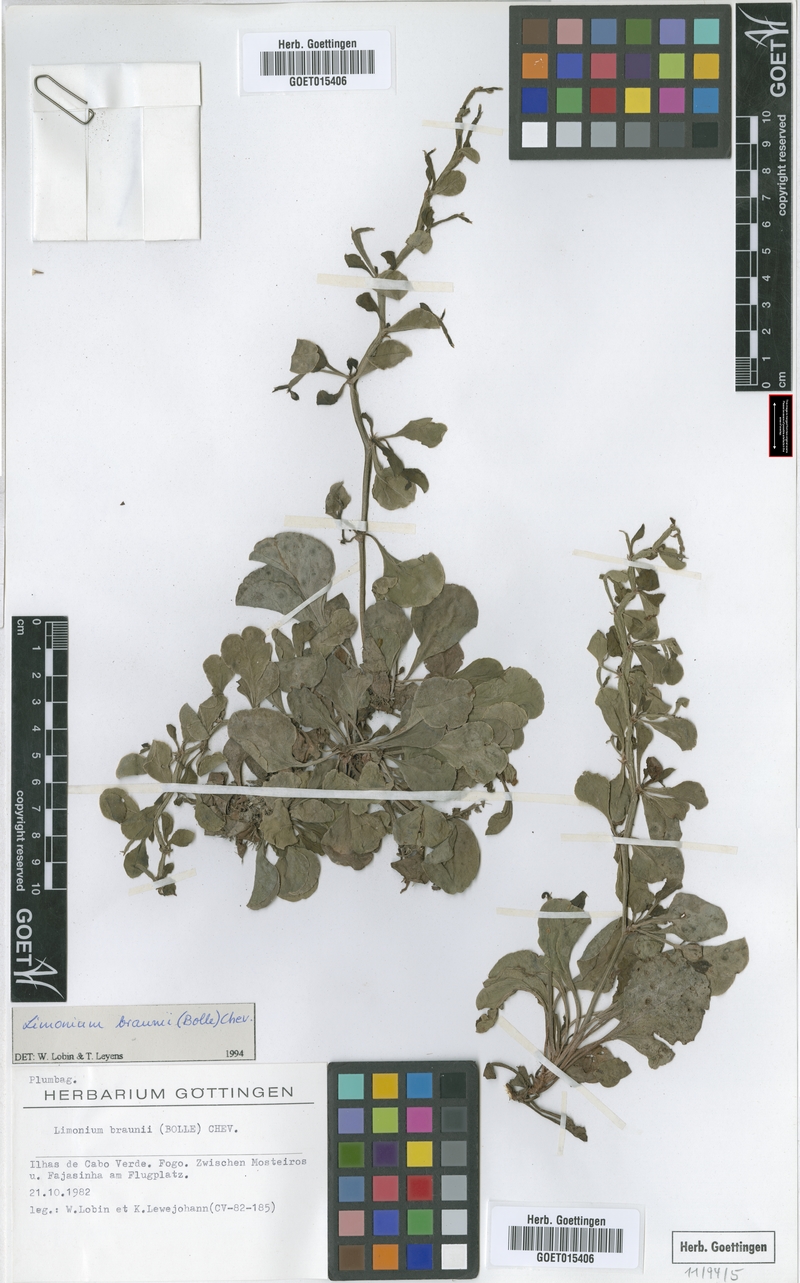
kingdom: Plantae
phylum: Tracheophyta
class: Magnoliopsida
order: Caryophyllales
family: Plumbaginaceae
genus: Limonium
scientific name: Limonium braunii
